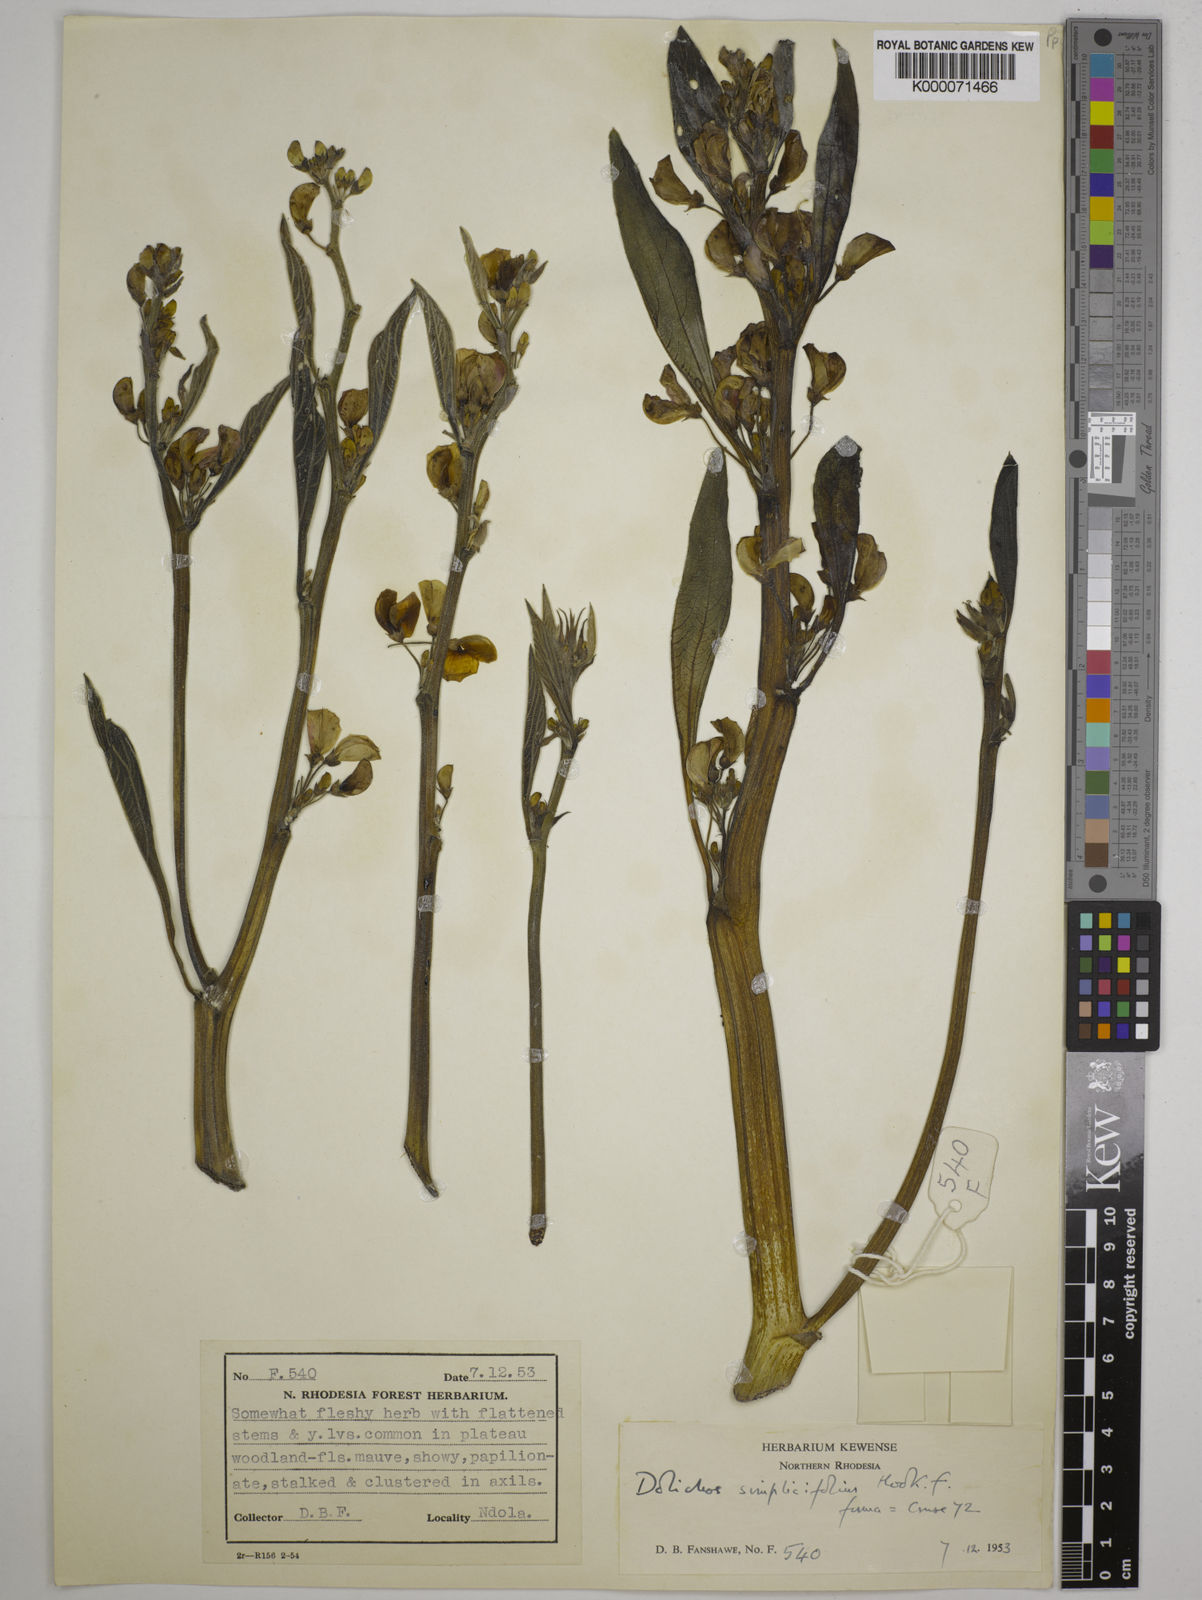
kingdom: Plantae
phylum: Tracheophyta
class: Magnoliopsida
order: Fabales
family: Fabaceae
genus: Dolichos
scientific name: Dolichos simplicifolius
